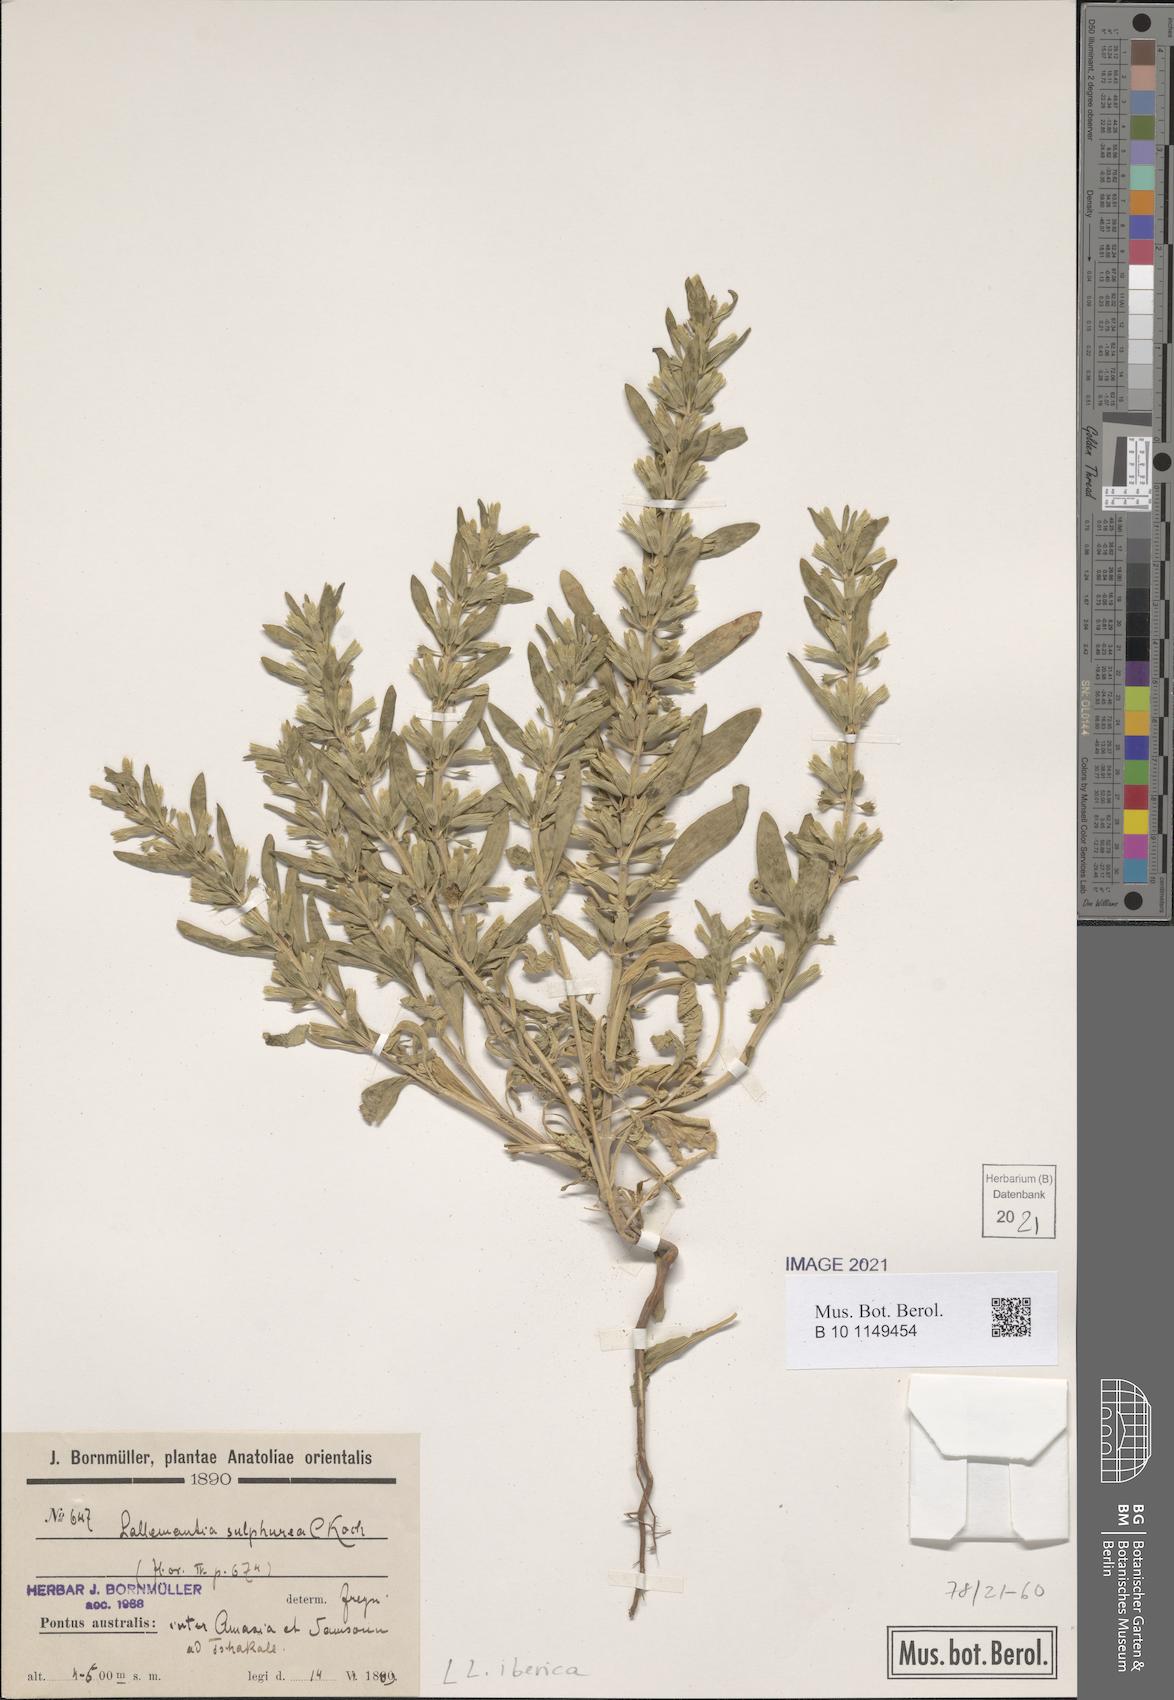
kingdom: Plantae
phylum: Tracheophyta
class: Magnoliopsida
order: Lamiales
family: Lamiaceae
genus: Lallemantia
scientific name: Lallemantia iberica
